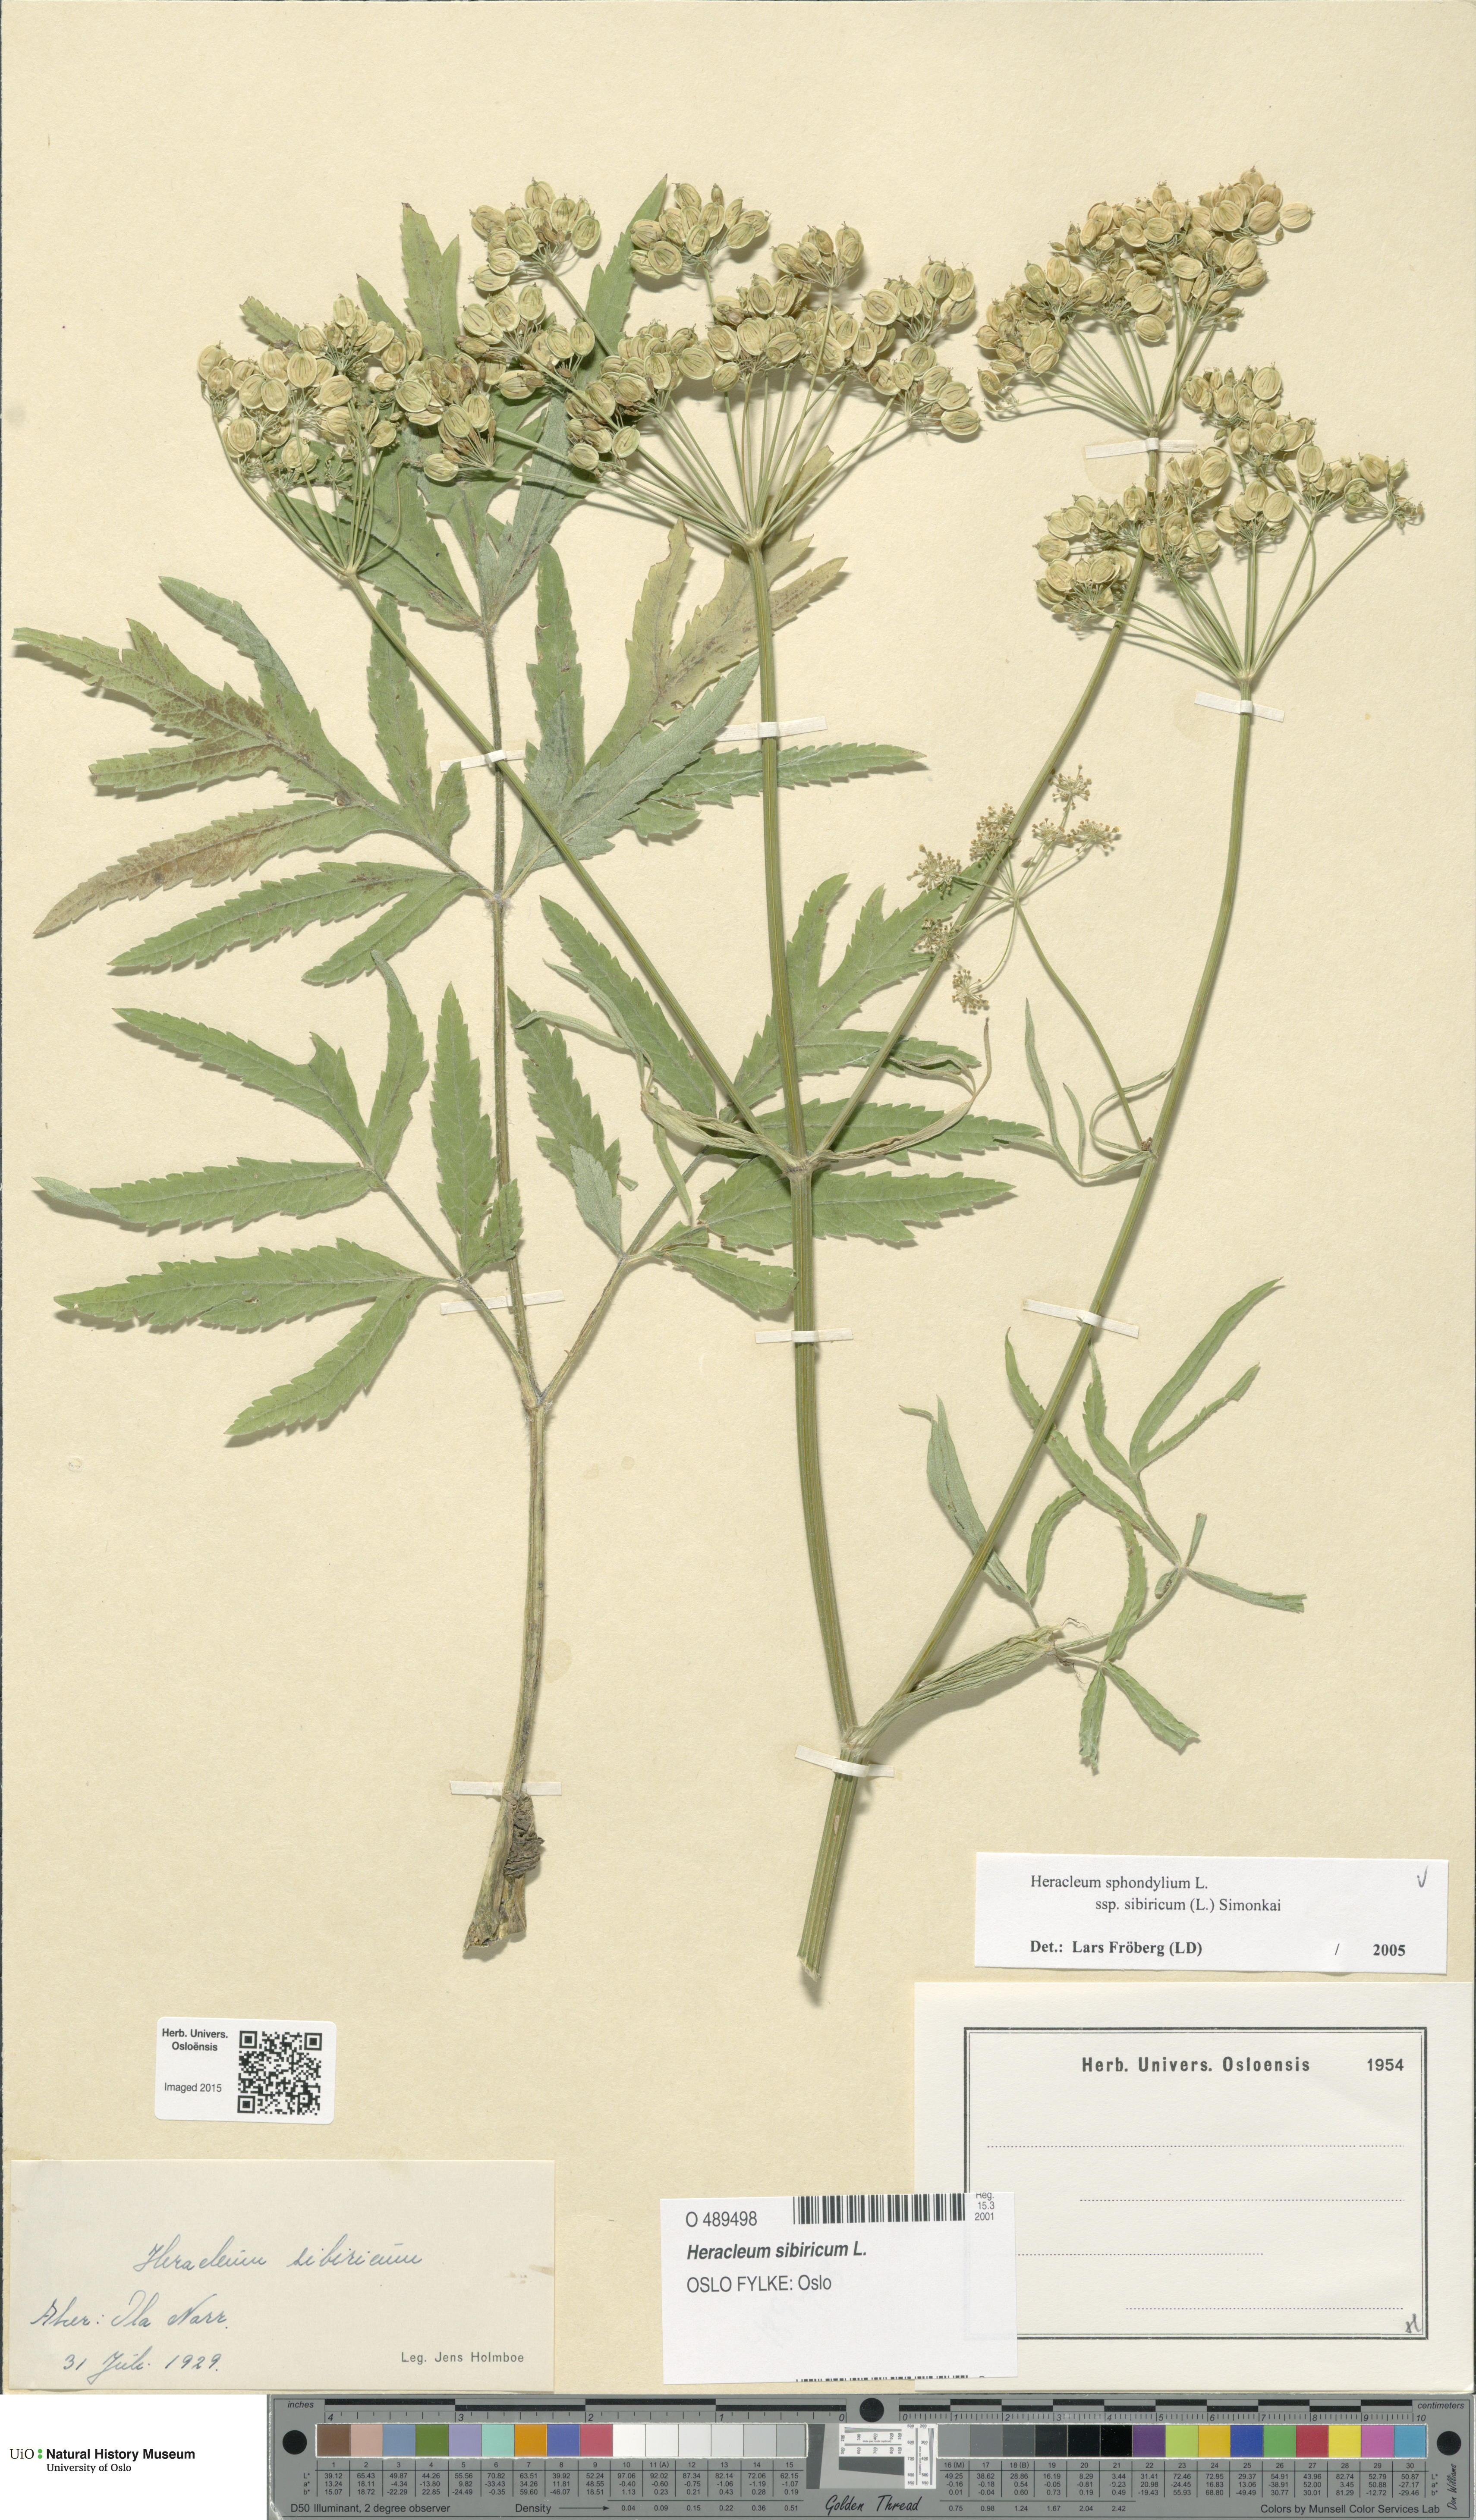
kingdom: Plantae
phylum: Tracheophyta
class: Magnoliopsida
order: Apiales
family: Apiaceae
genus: Heracleum
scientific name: Heracleum sphondylium
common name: Hogweed
